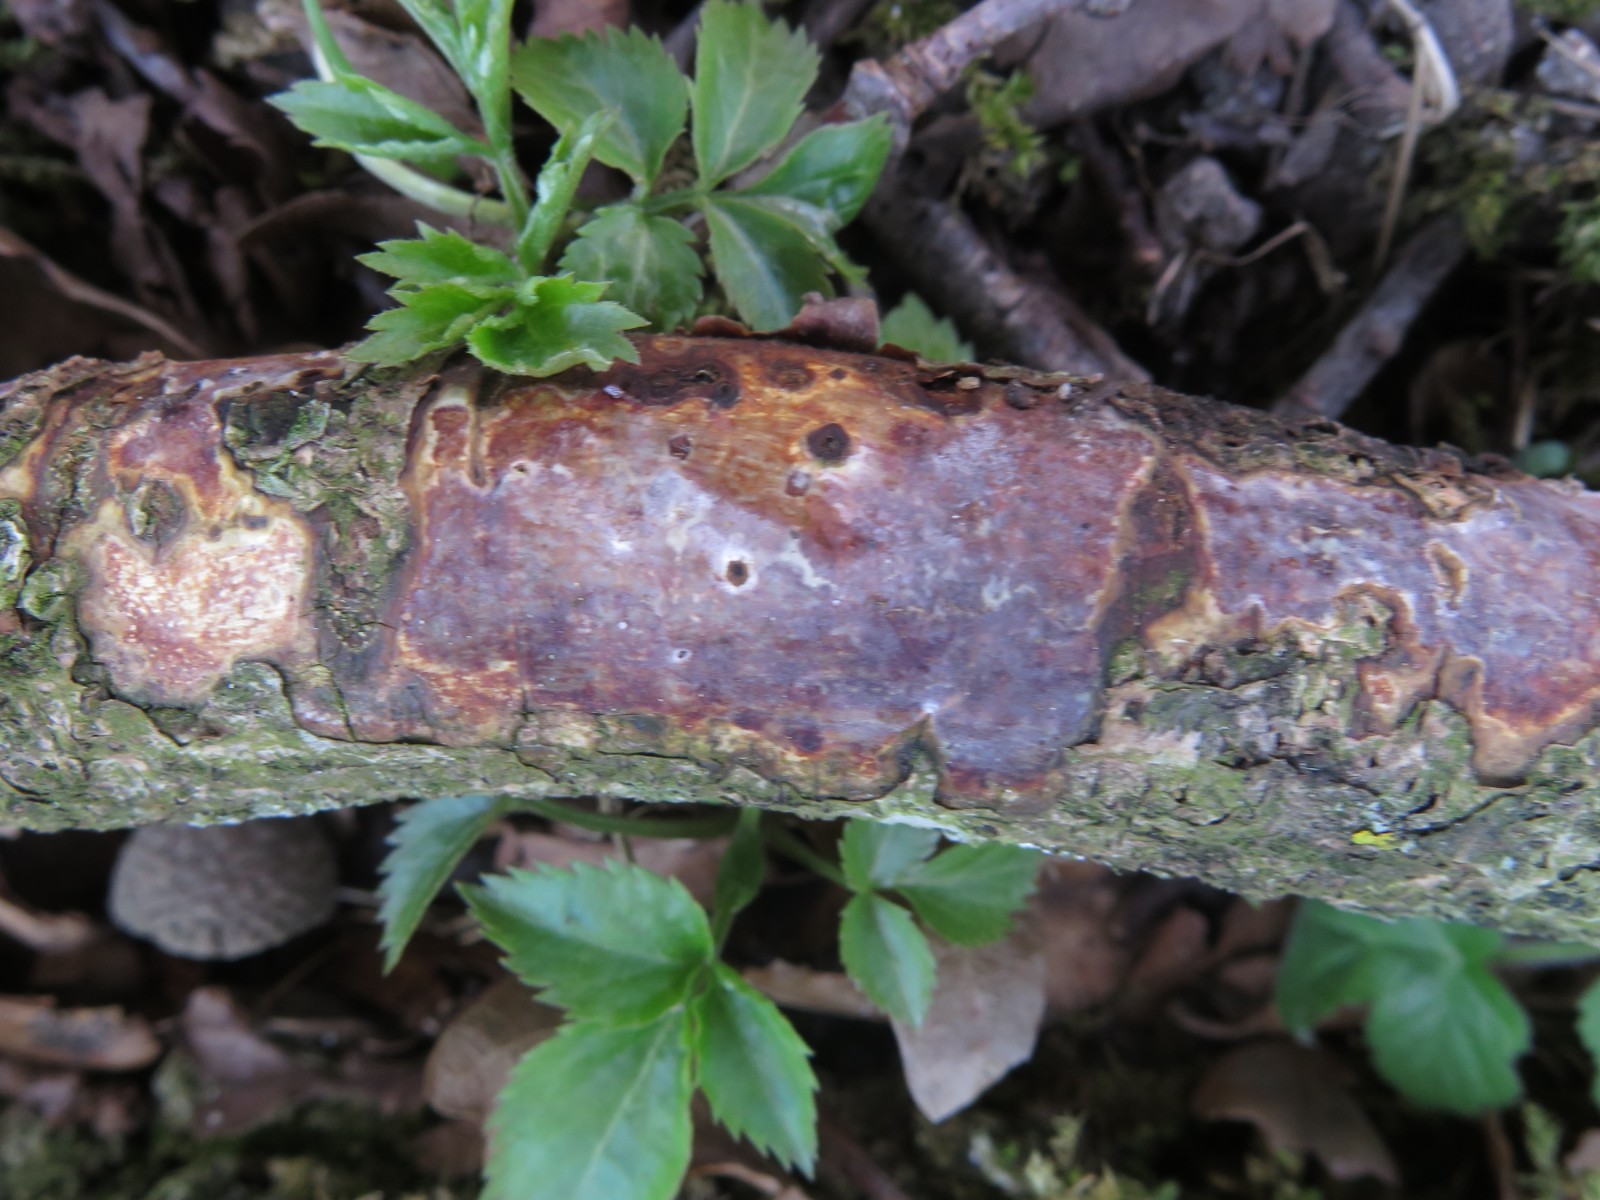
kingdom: Fungi
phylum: Basidiomycota
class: Agaricomycetes
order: Corticiales
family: Vuilleminiaceae
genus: Vuilleminia
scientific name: Vuilleminia comedens
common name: almindelig barksprænger
